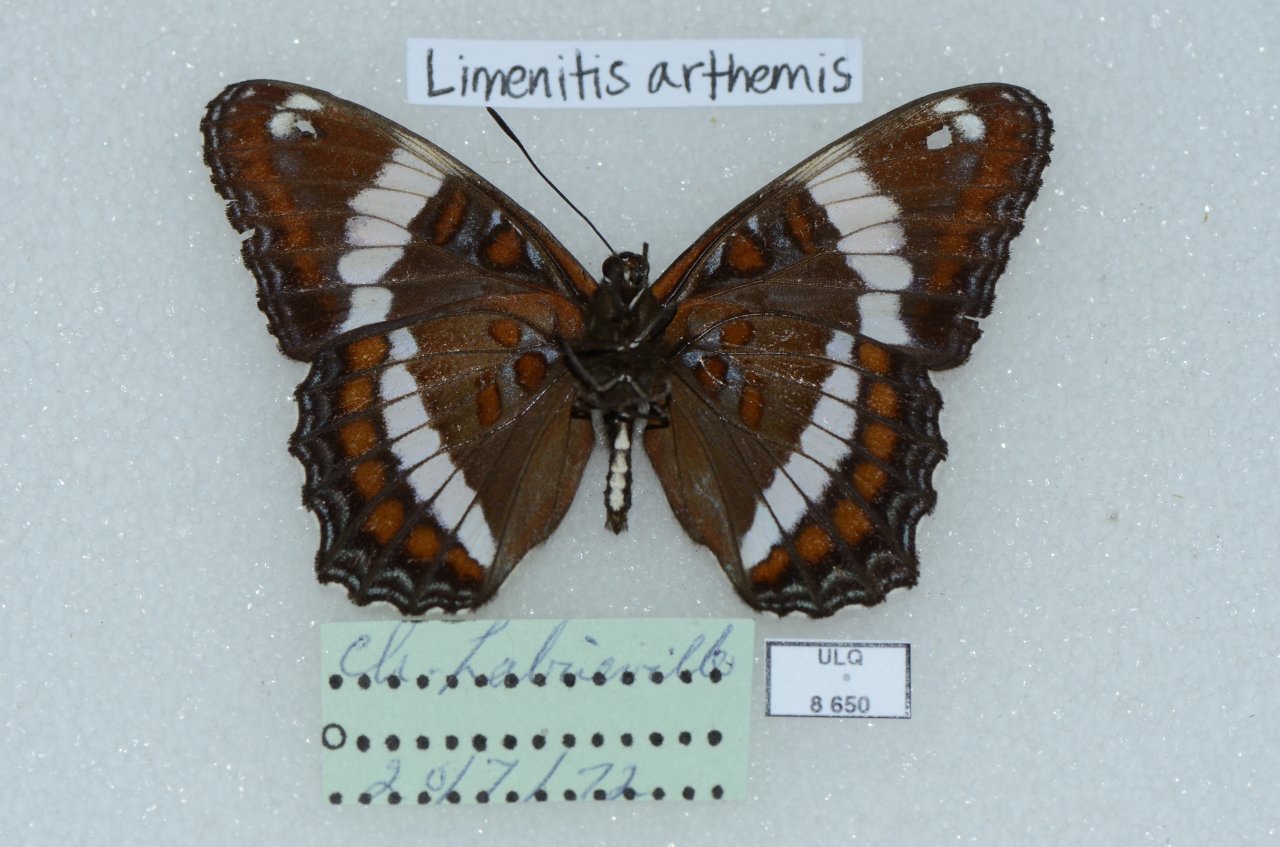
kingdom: Animalia
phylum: Arthropoda
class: Insecta
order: Lepidoptera
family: Nymphalidae
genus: Limenitis
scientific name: Limenitis arthemis
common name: Red-spotted Admiral
